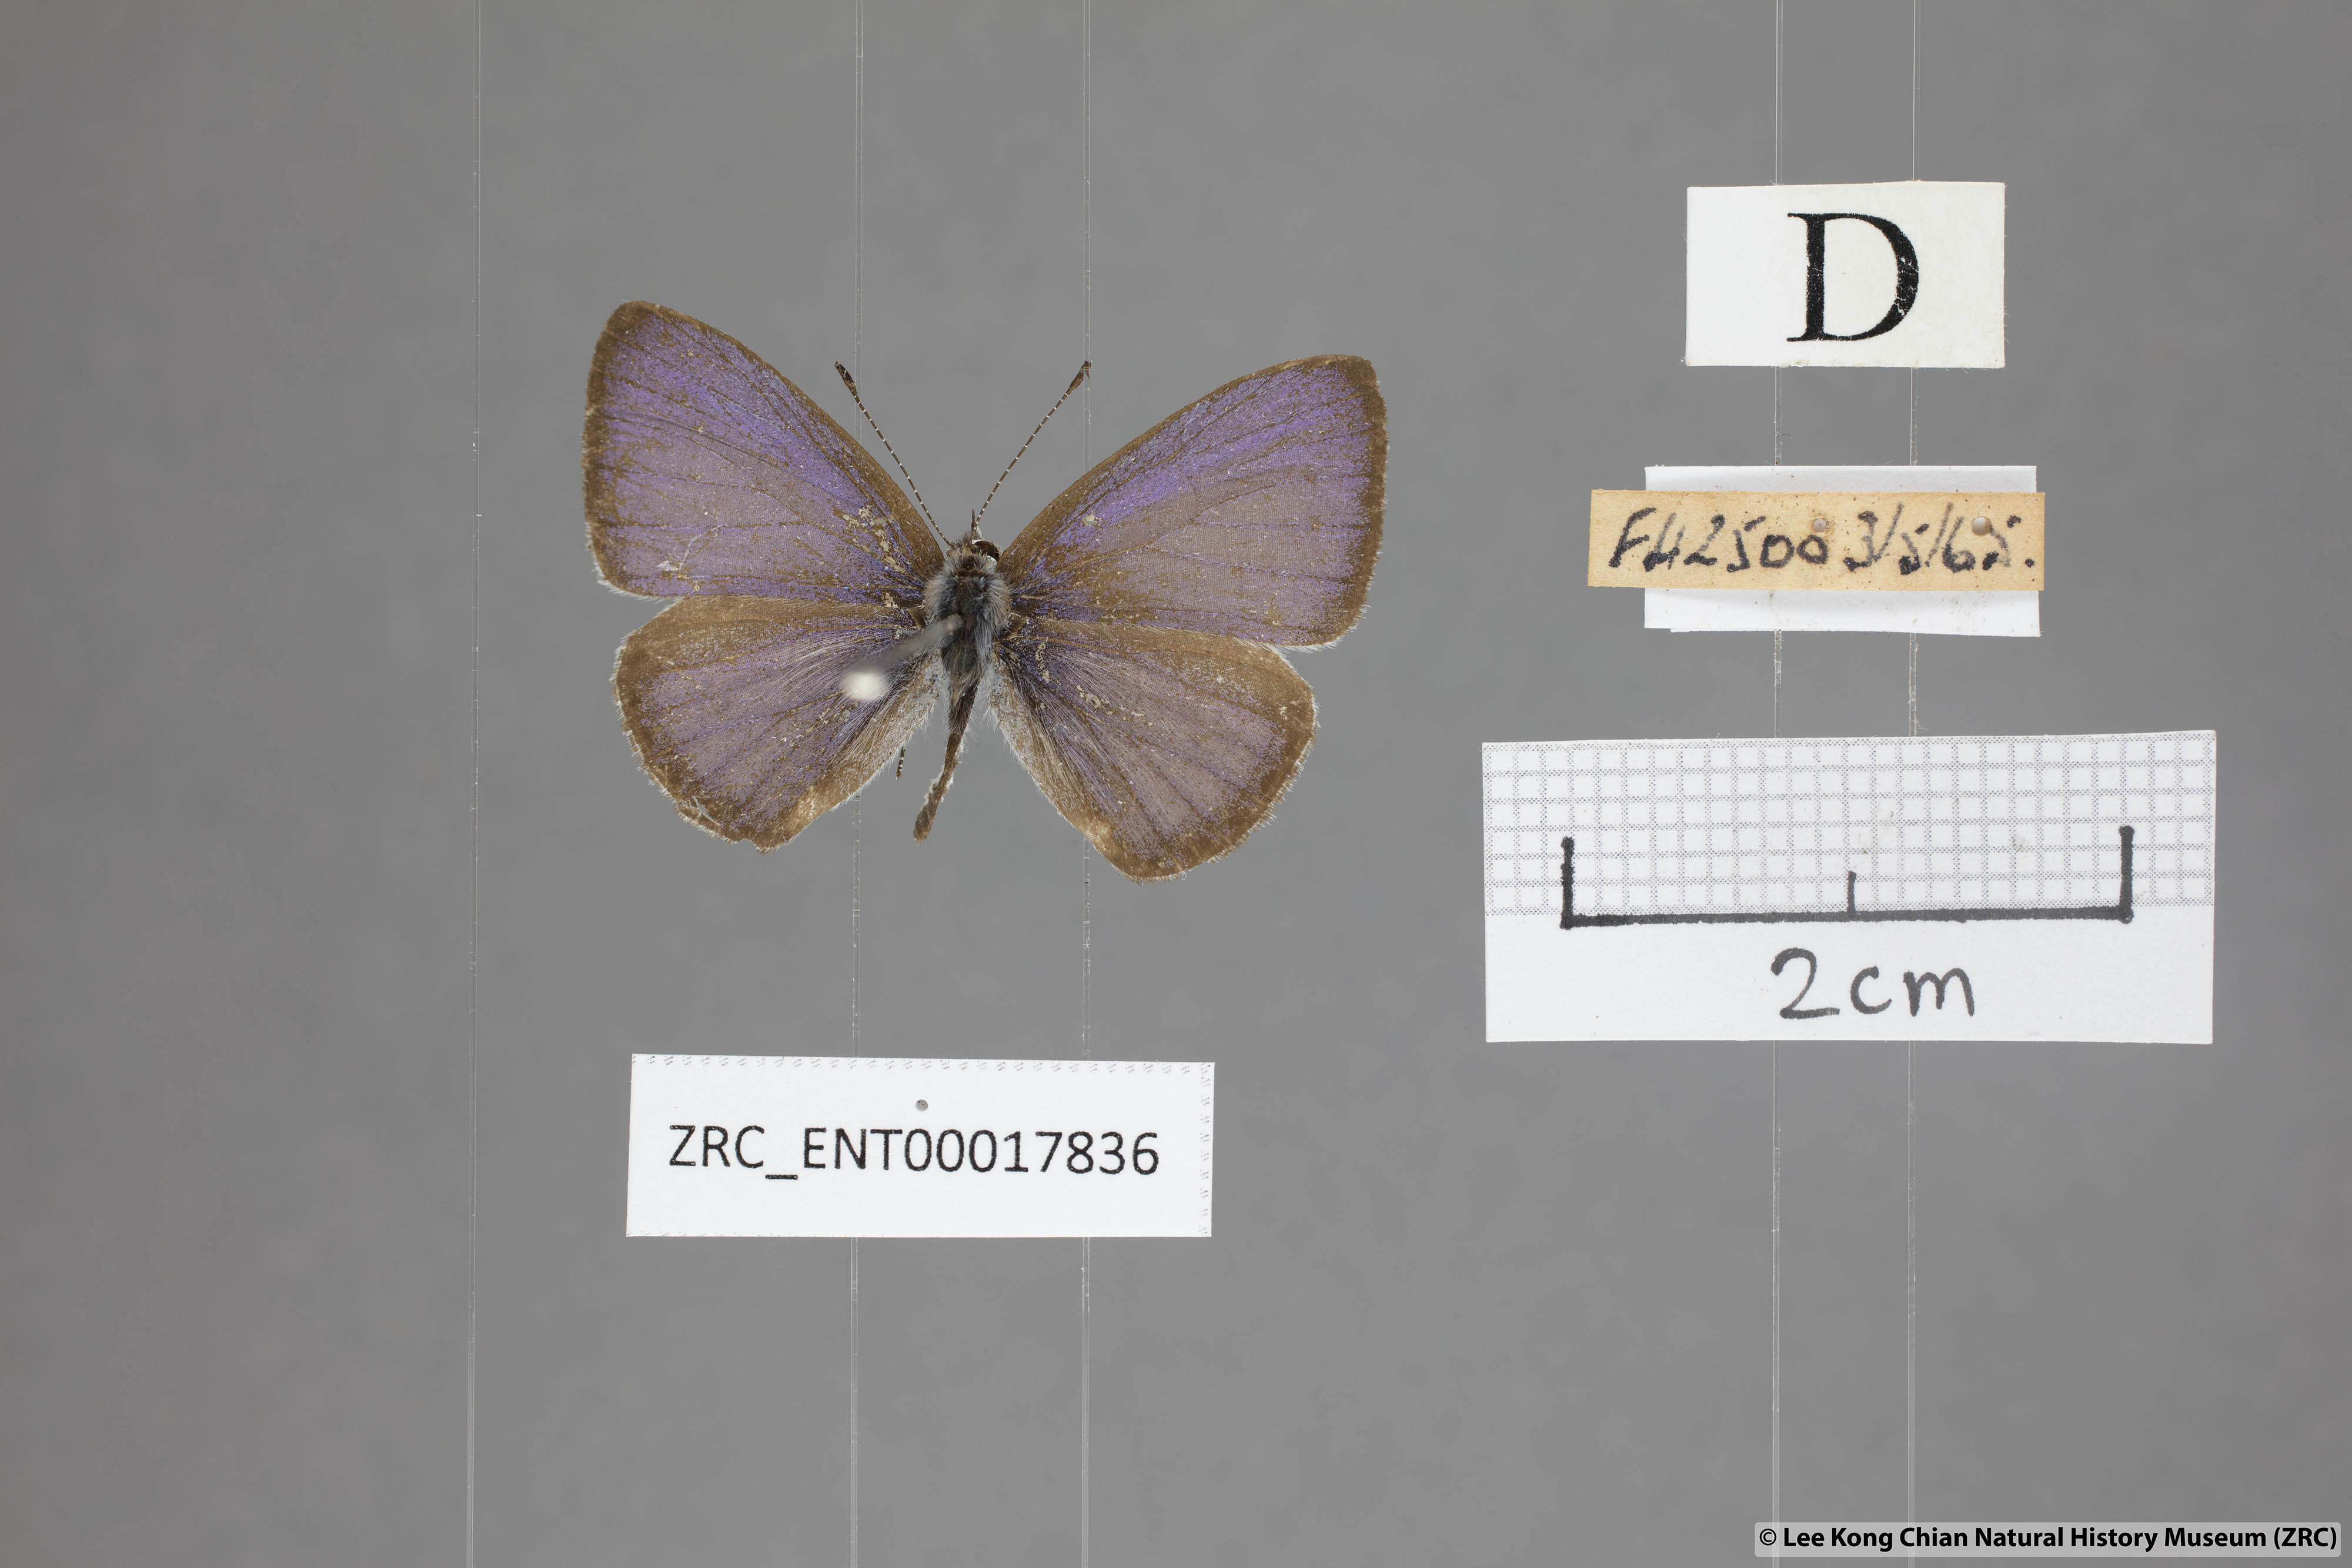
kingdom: Animalia
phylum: Arthropoda
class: Insecta
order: Lepidoptera
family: Lycaenidae
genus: Udara
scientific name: Udara
